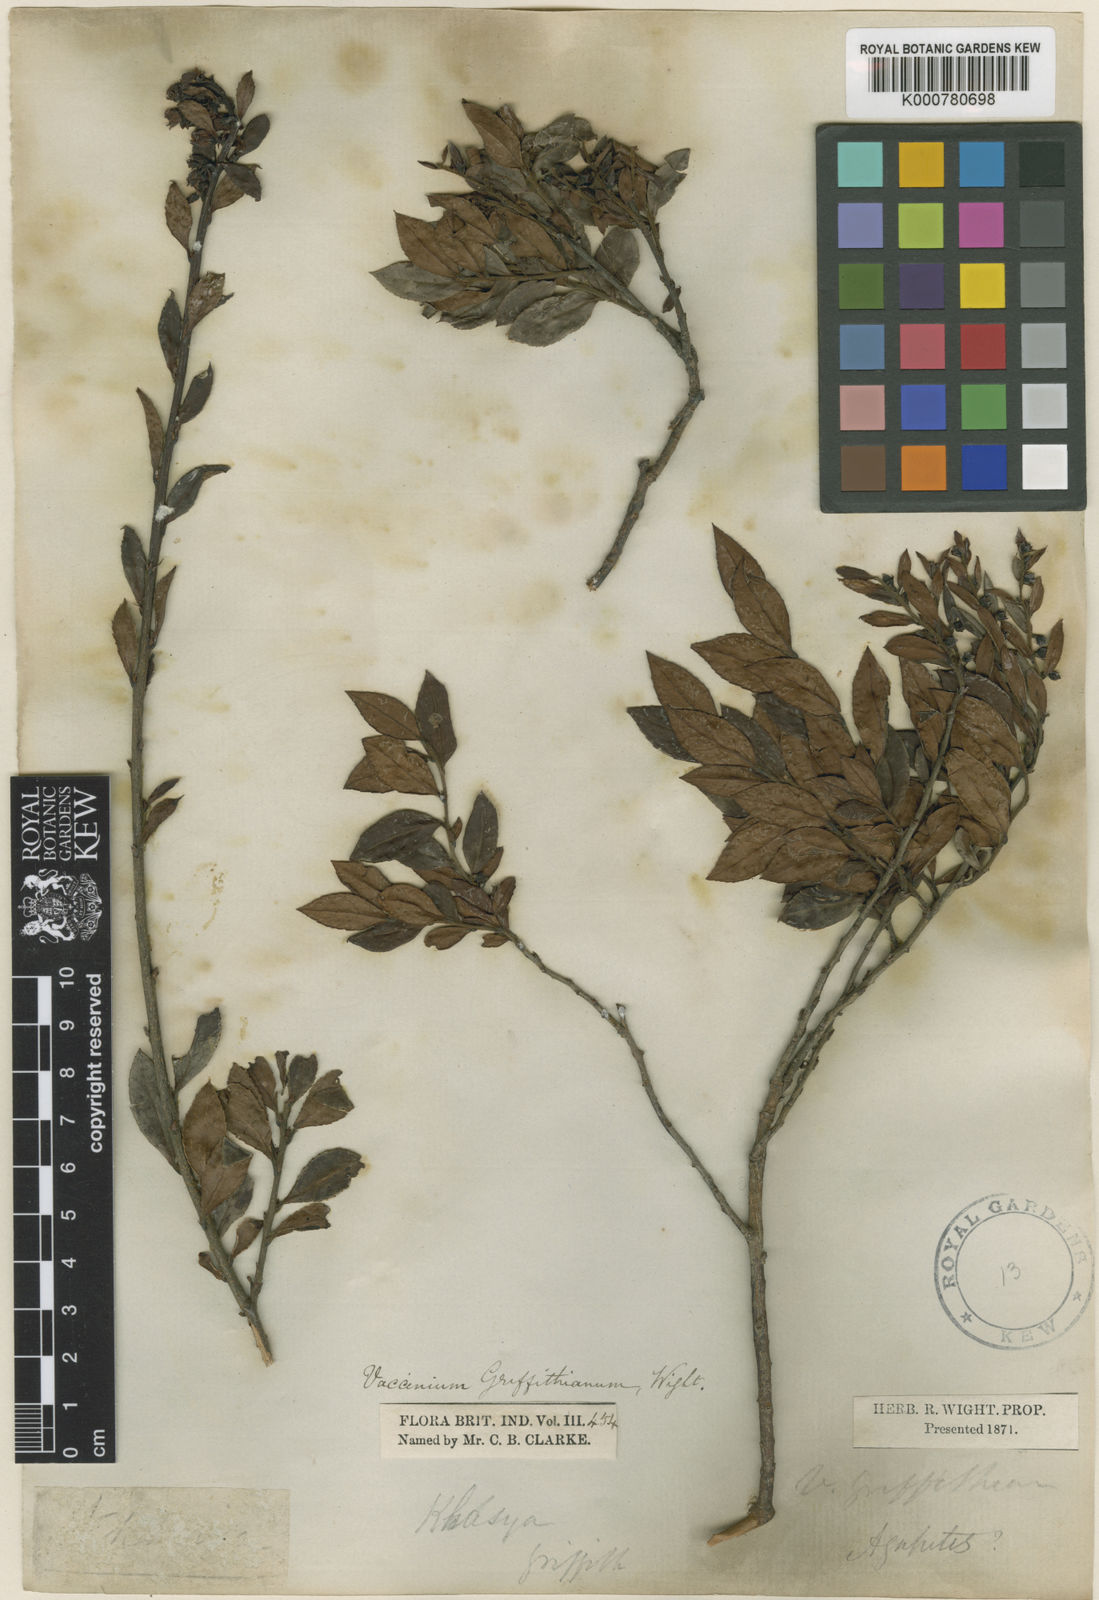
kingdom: Plantae
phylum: Tracheophyta
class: Magnoliopsida
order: Ericales
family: Ericaceae
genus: Vaccinium
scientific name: Vaccinium griffithianum
